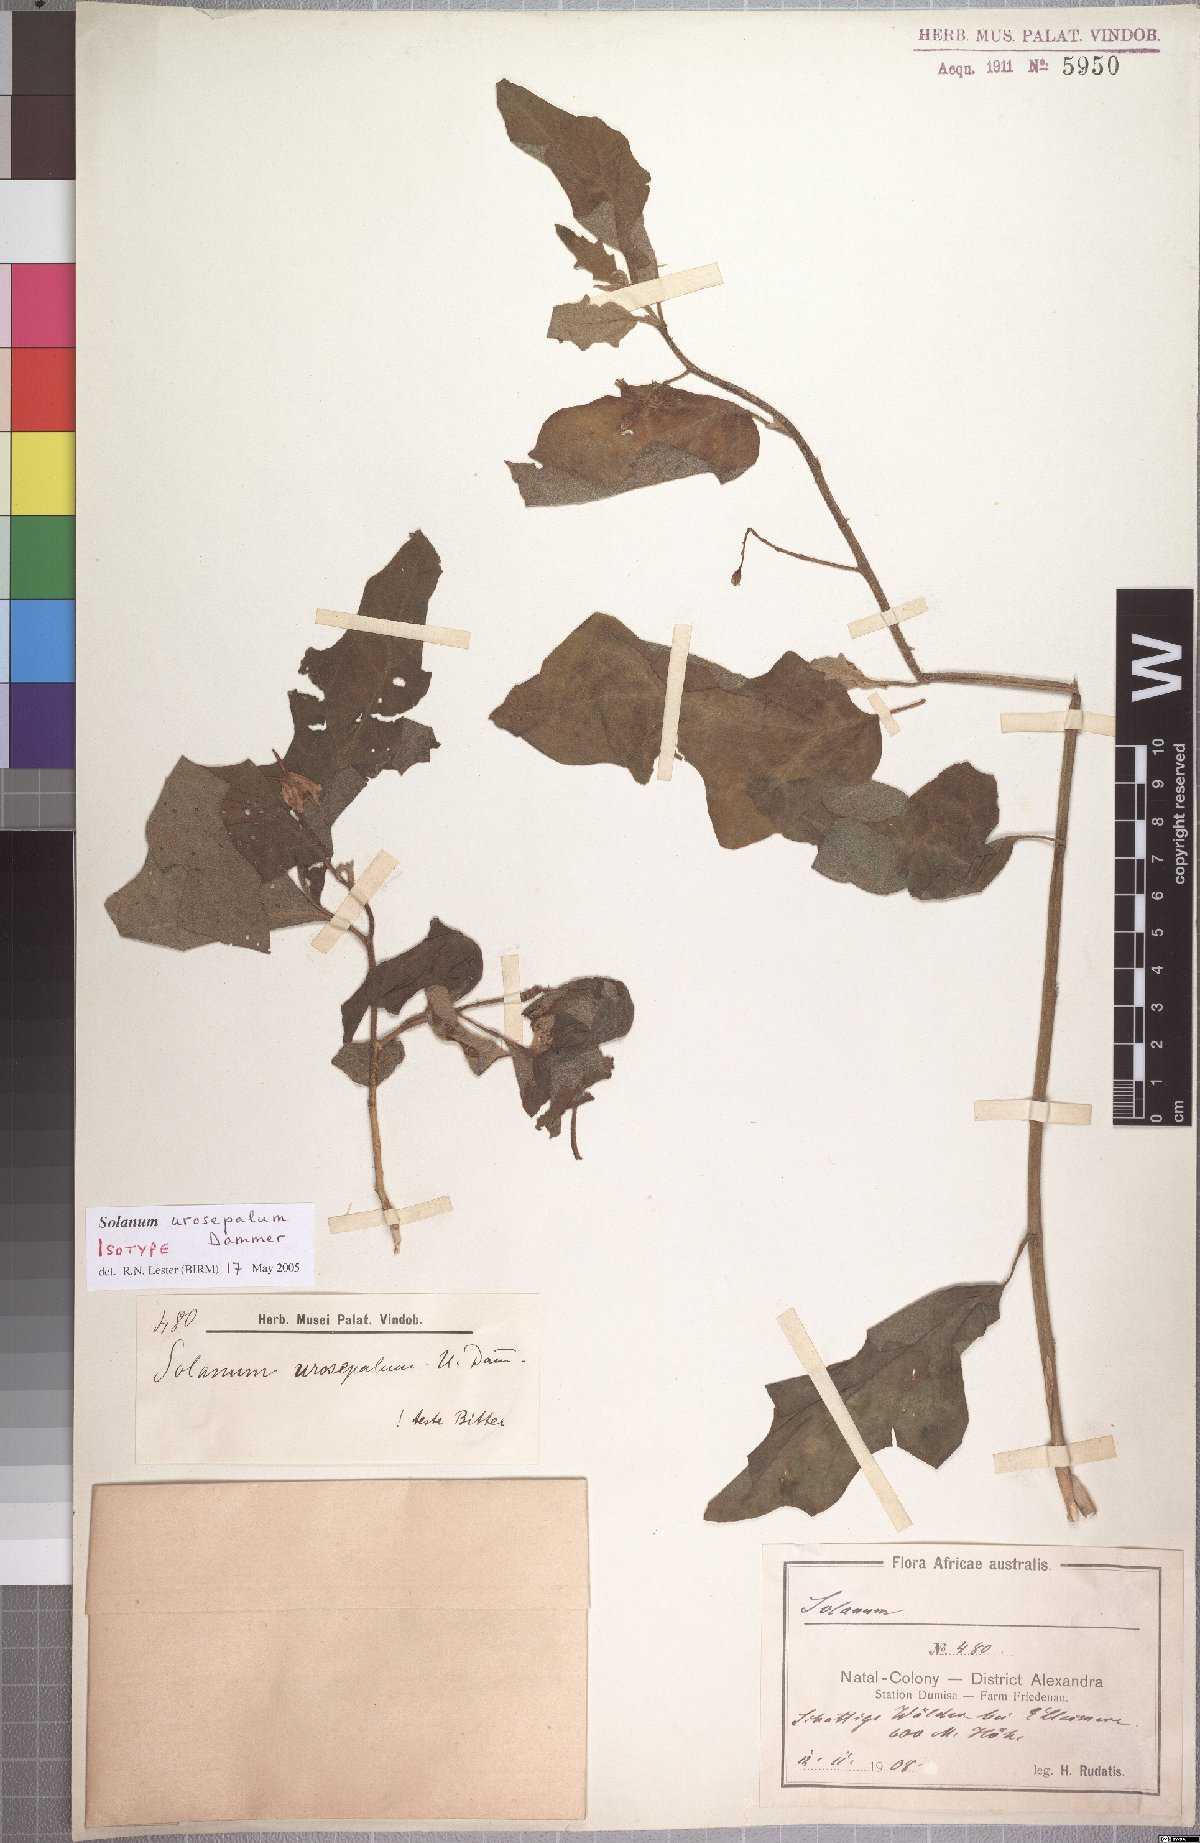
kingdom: Plantae
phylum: Tracheophyta
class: Magnoliopsida
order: Solanales
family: Solanaceae
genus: Solanum
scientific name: Solanum anguivi
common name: Forest bitterberry
